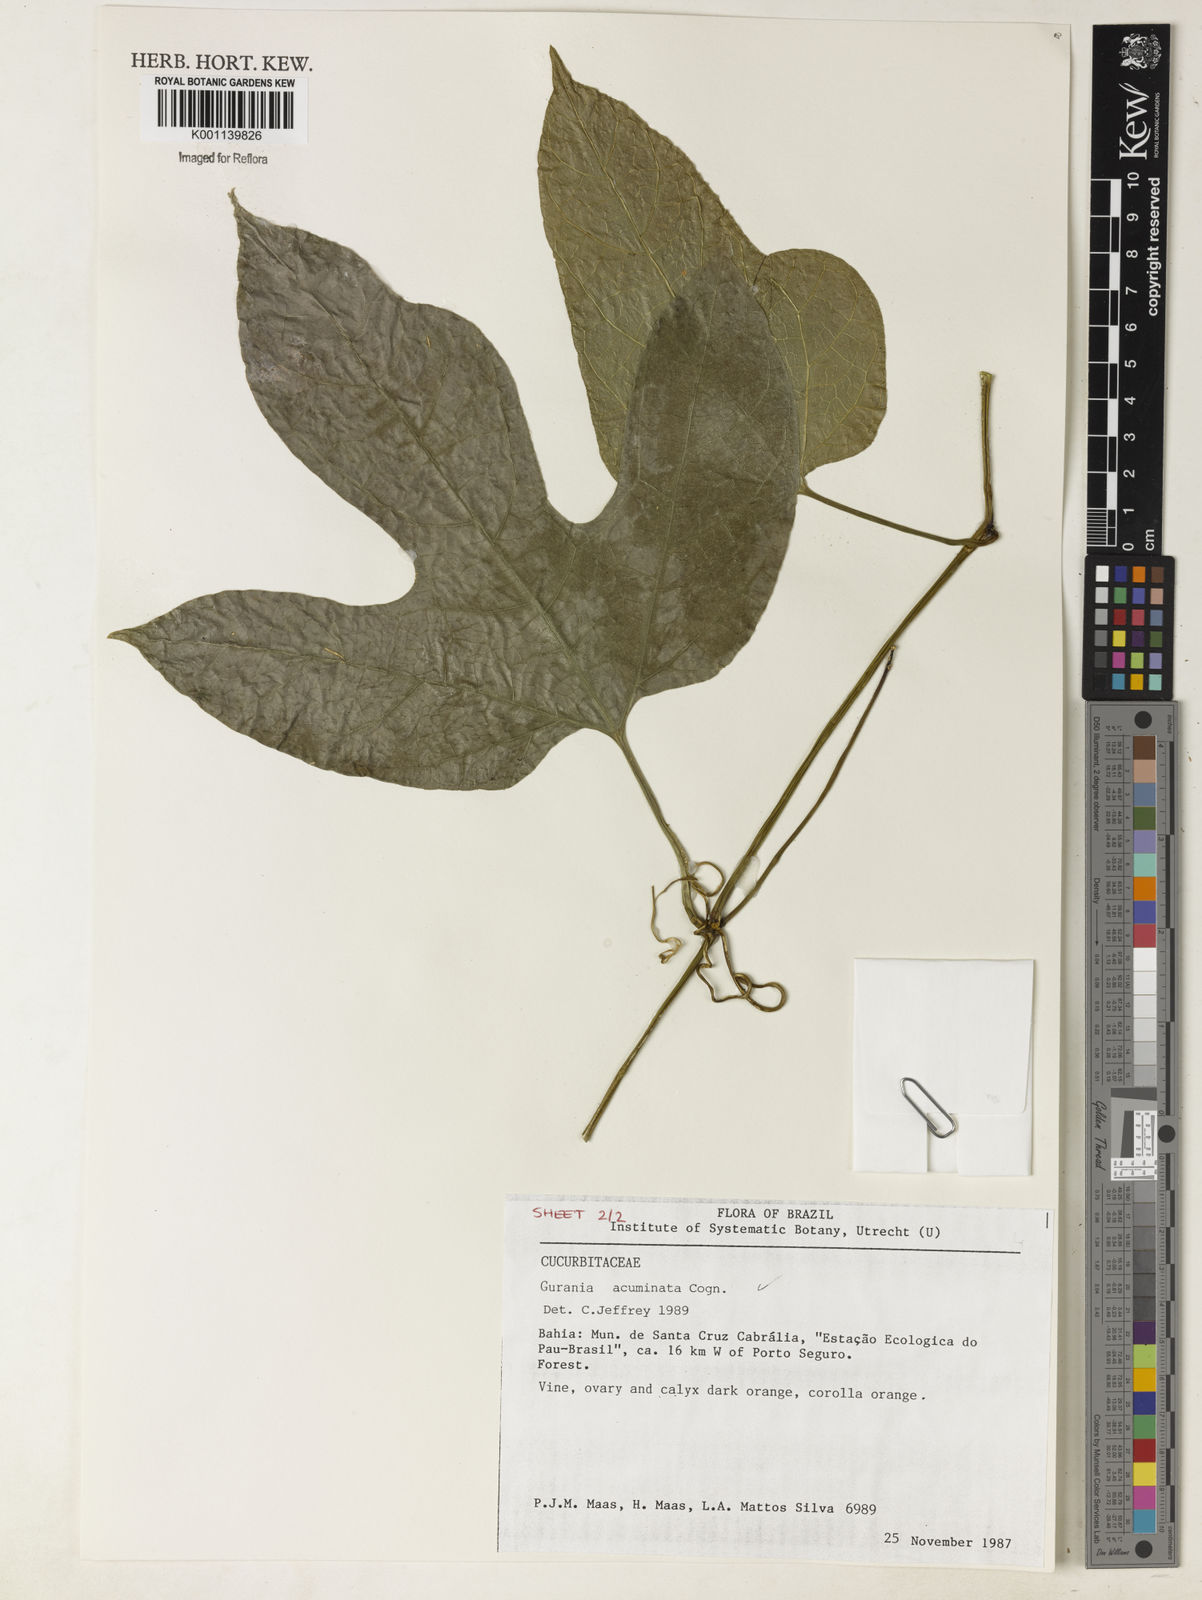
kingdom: Plantae
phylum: Tracheophyta
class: Magnoliopsida
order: Cucurbitales
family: Cucurbitaceae
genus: Gurania
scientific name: Gurania acuminata
